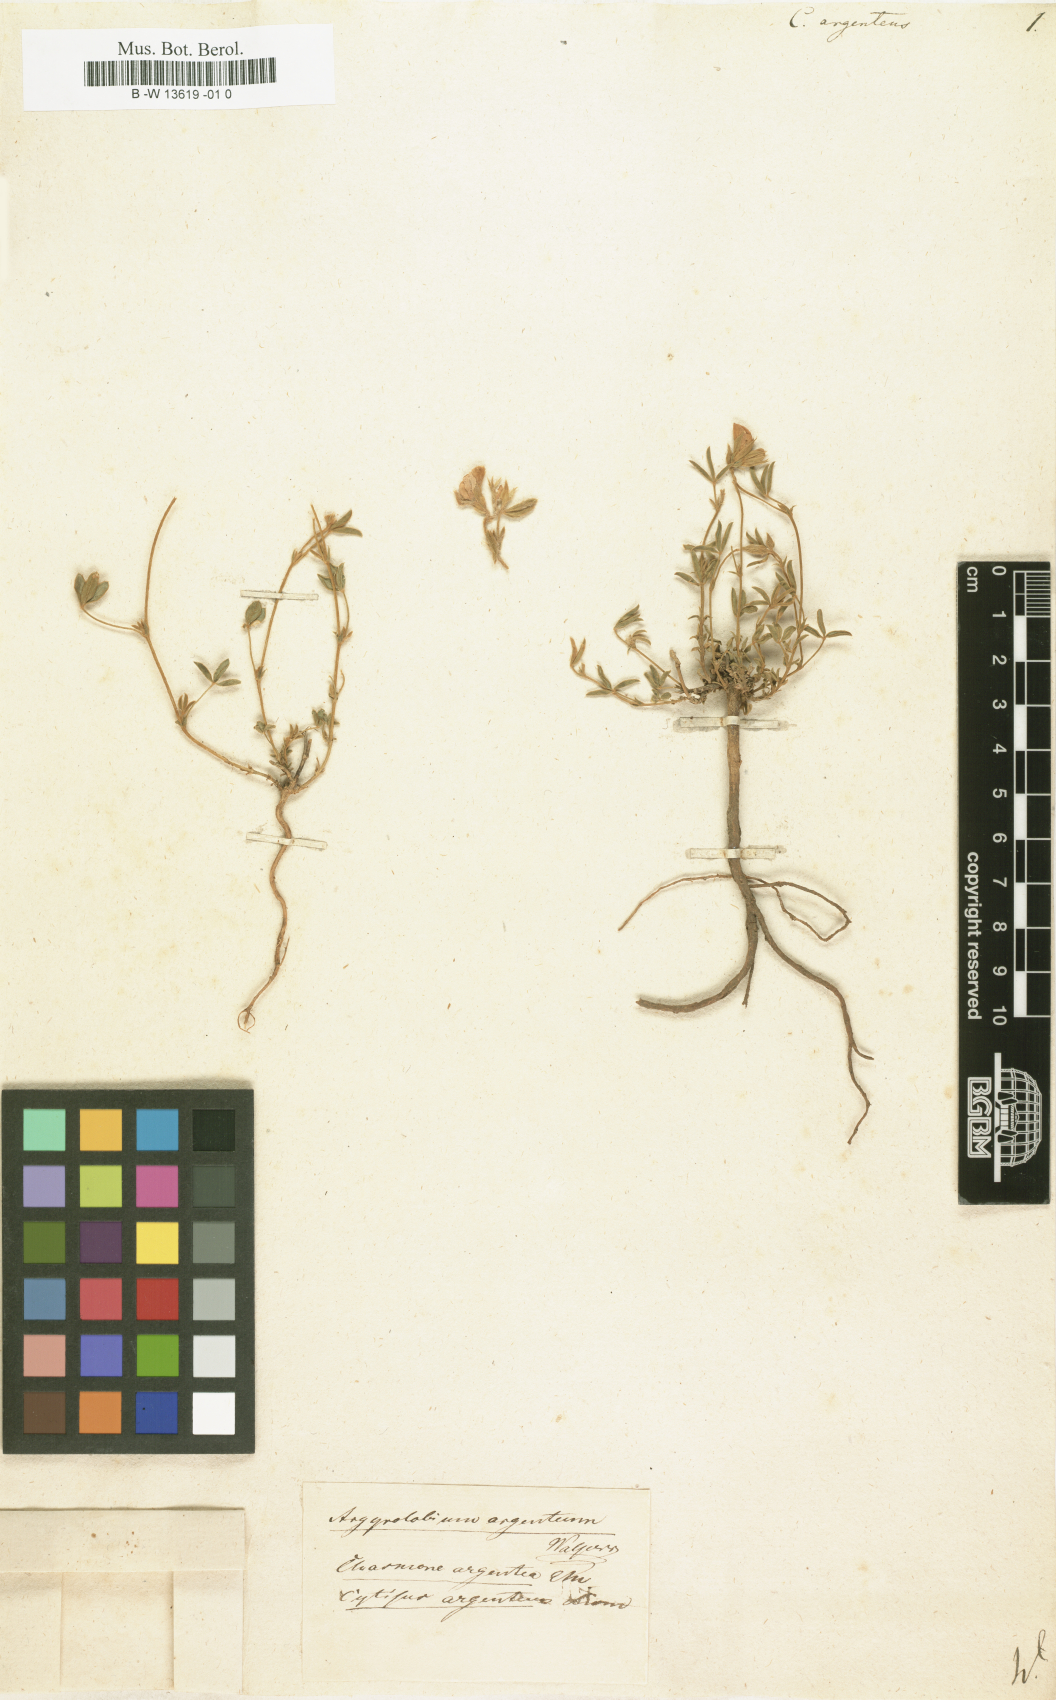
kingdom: Plantae
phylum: Tracheophyta
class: Magnoliopsida
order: Fabales
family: Fabaceae
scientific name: Fabaceae
